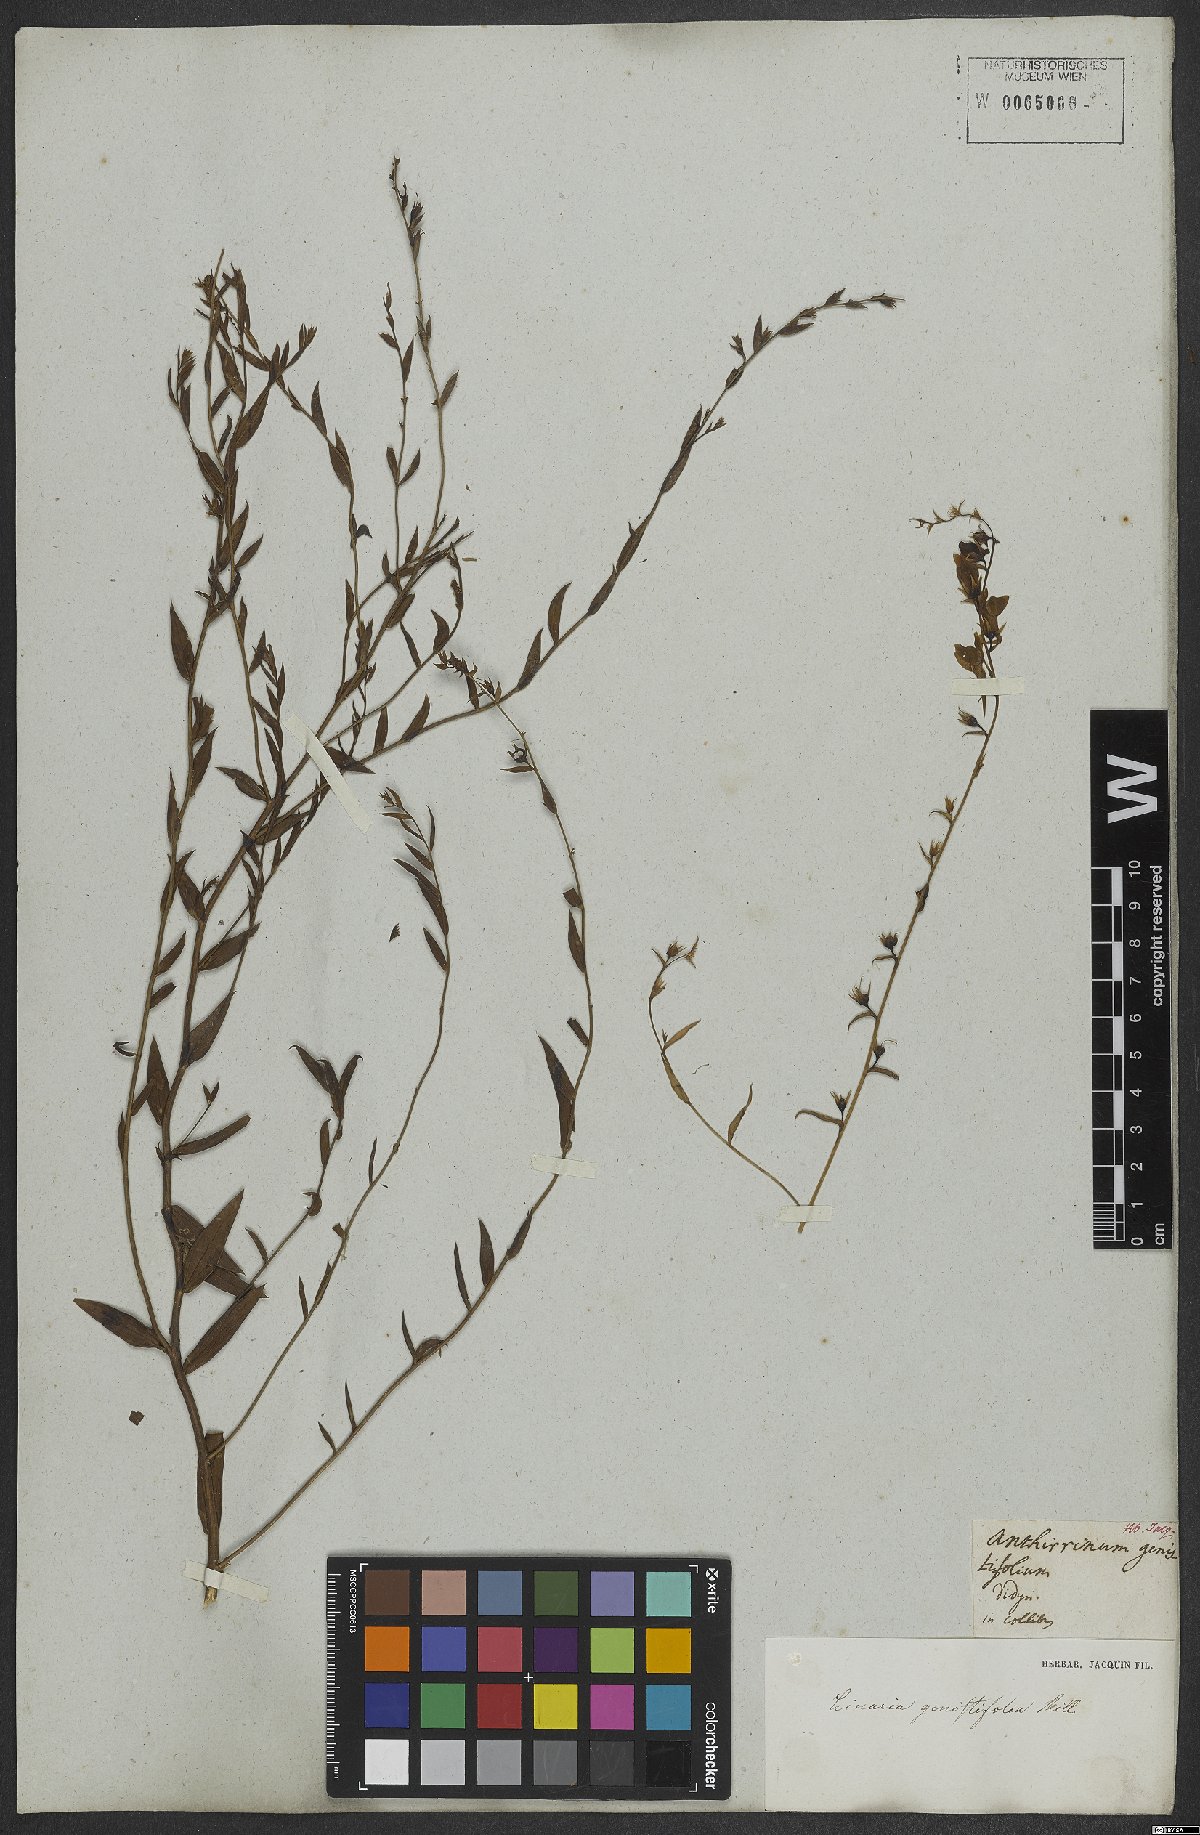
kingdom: Plantae
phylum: Tracheophyta
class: Magnoliopsida
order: Lamiales
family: Plantaginaceae
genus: Linaria
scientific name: Linaria genistifolia
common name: Broomleaf toadflax
